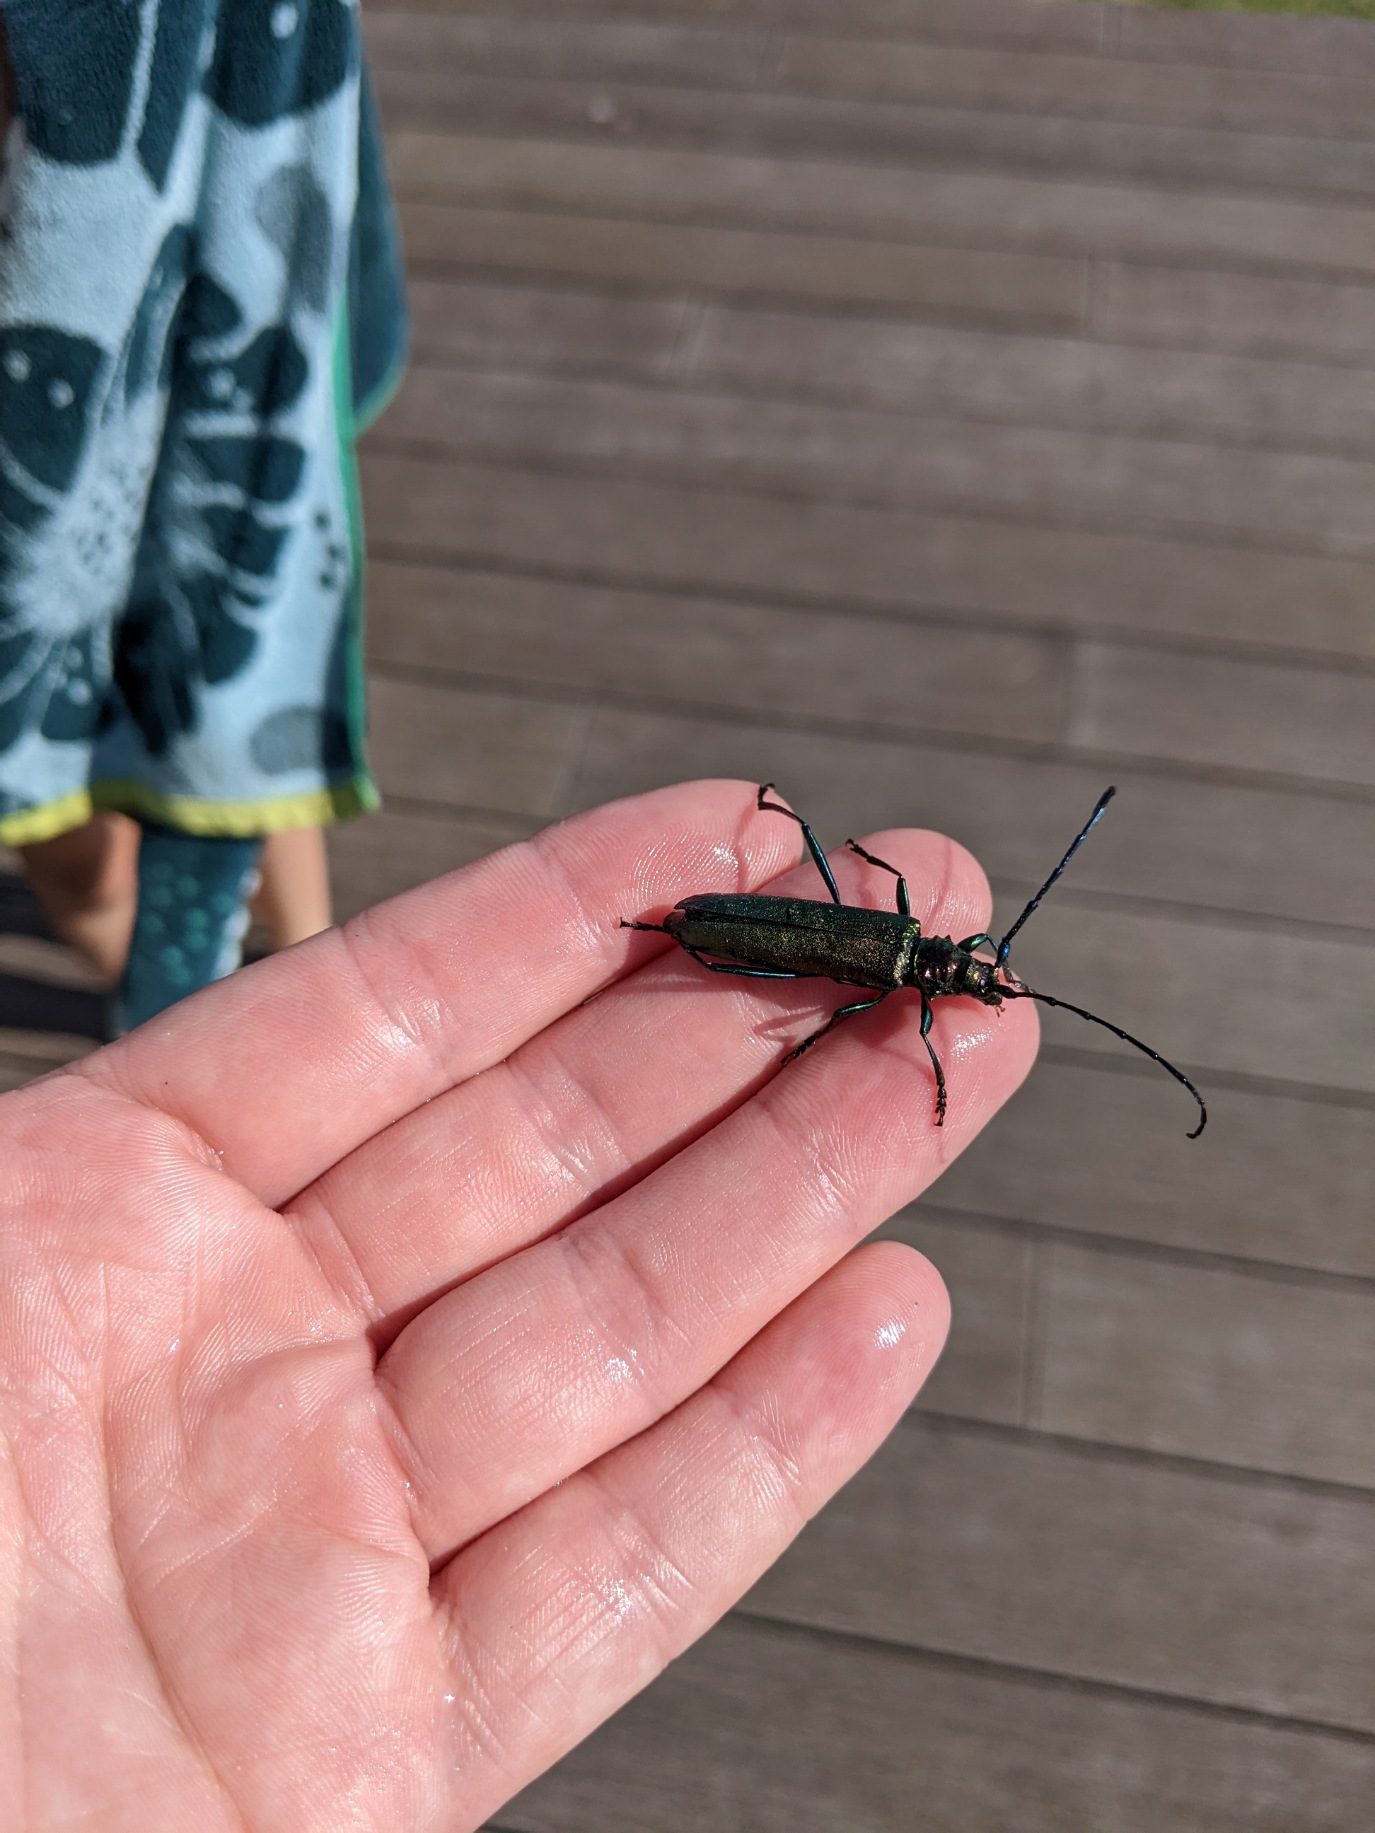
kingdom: Animalia
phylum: Arthropoda
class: Insecta
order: Coleoptera
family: Cerambycidae
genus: Aromia
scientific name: Aromia moschata
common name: Moskusbuk
